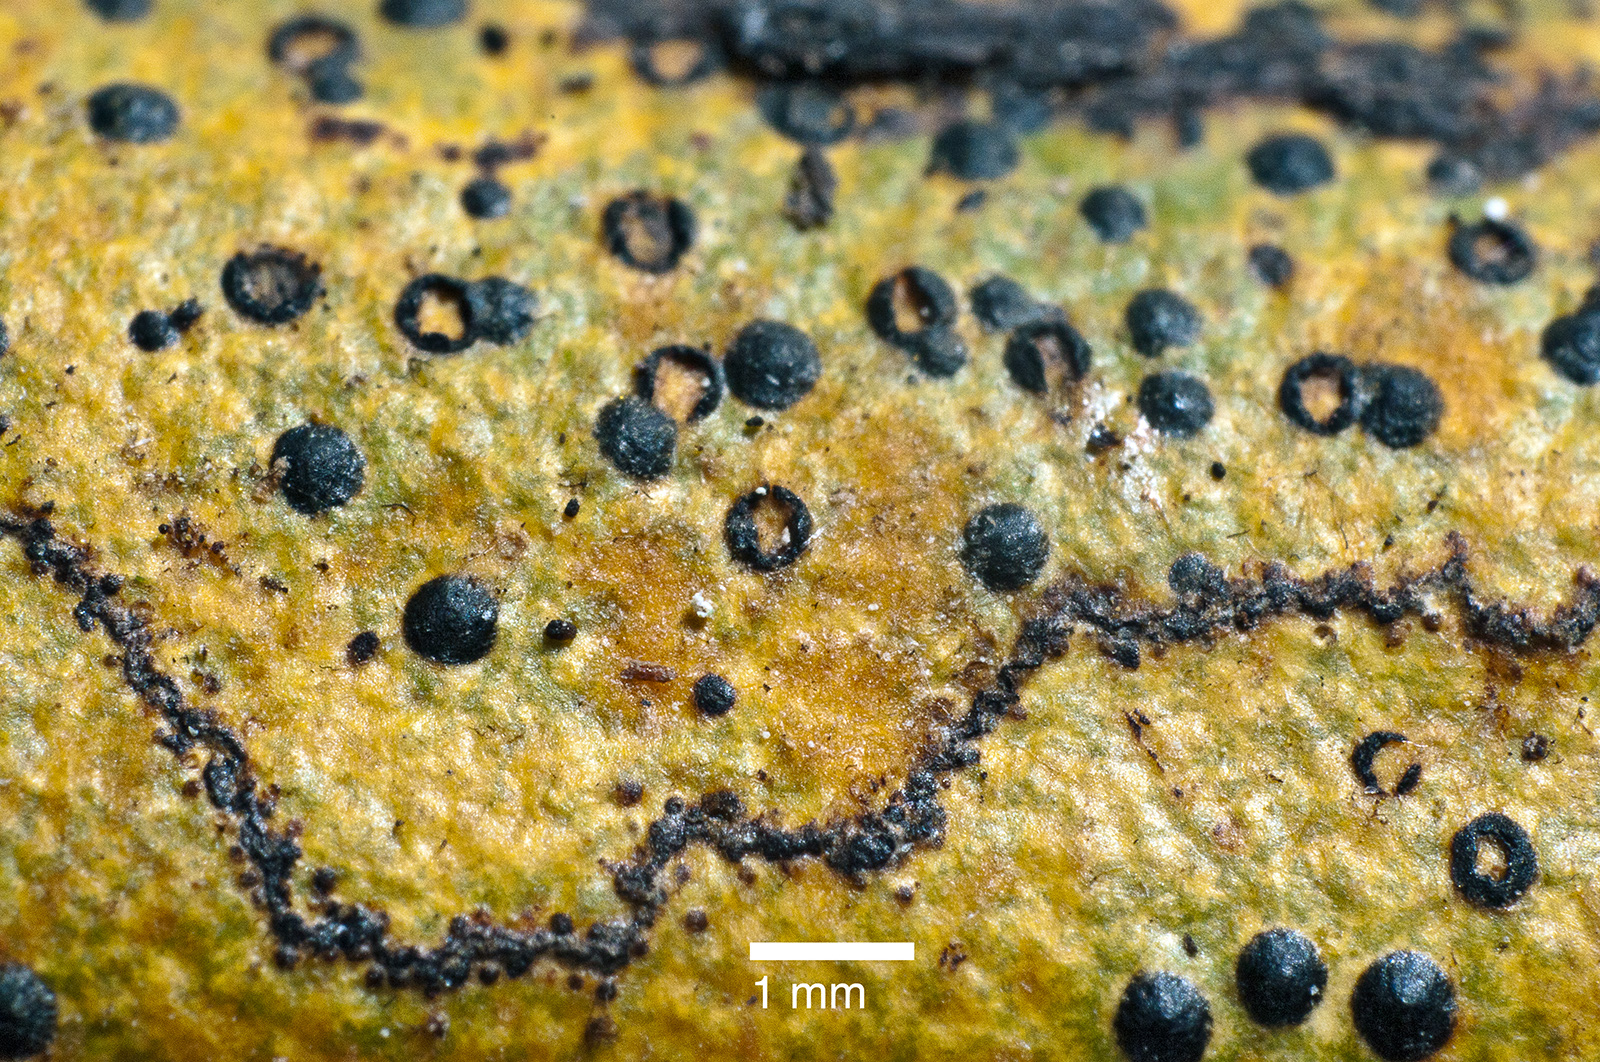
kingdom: Fungi
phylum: Ascomycota
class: Eurotiomycetes
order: Pyrenulales
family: Pyrenulaceae
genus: Pyrenula
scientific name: Pyrenula
